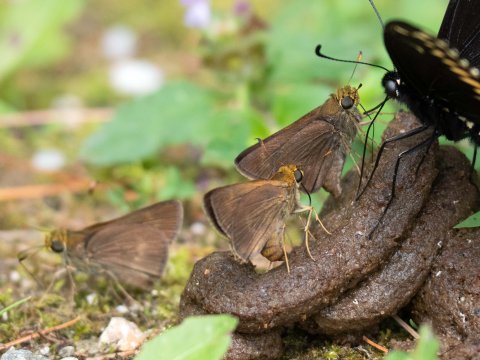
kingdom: Animalia
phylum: Arthropoda
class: Insecta
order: Lepidoptera
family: Hesperiidae
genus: Euphyes
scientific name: Euphyes vestris
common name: Dun Skipper
